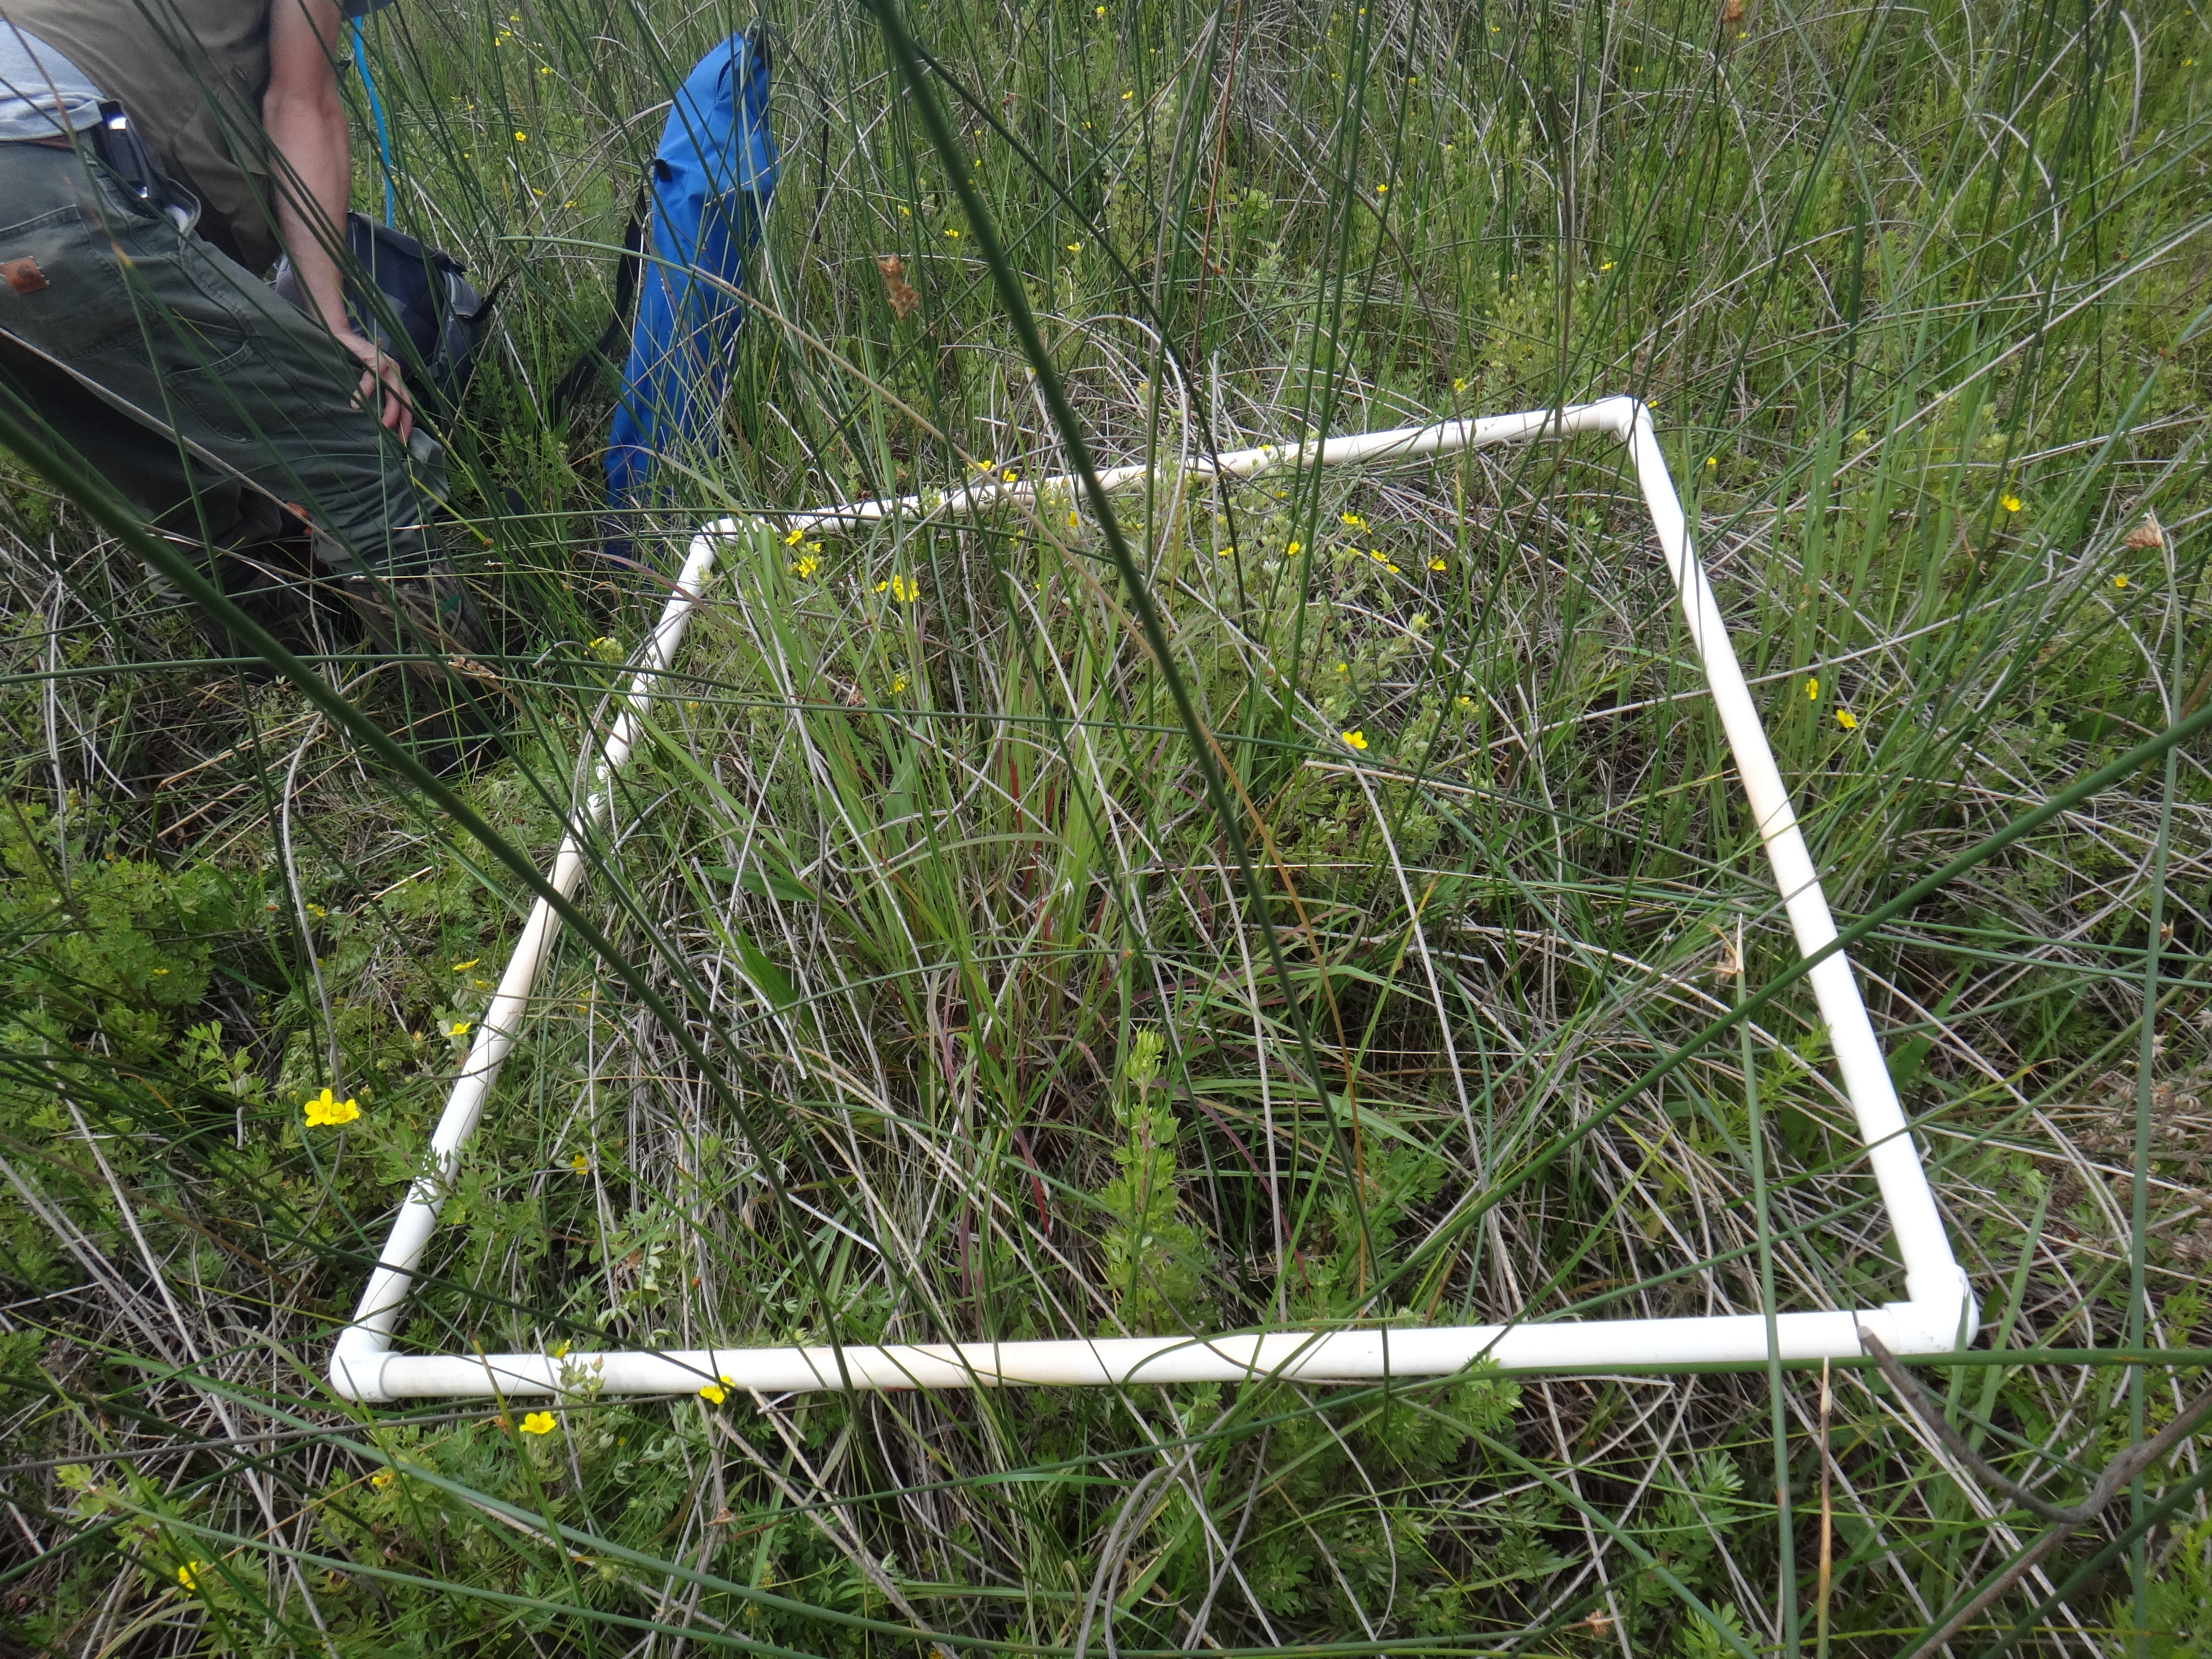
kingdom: Plantae
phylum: Tracheophyta
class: Magnoliopsida
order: Rosales
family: Rosaceae
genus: Dasiphora
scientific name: Dasiphora fruticosa
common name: Shrubby cinquefoil
